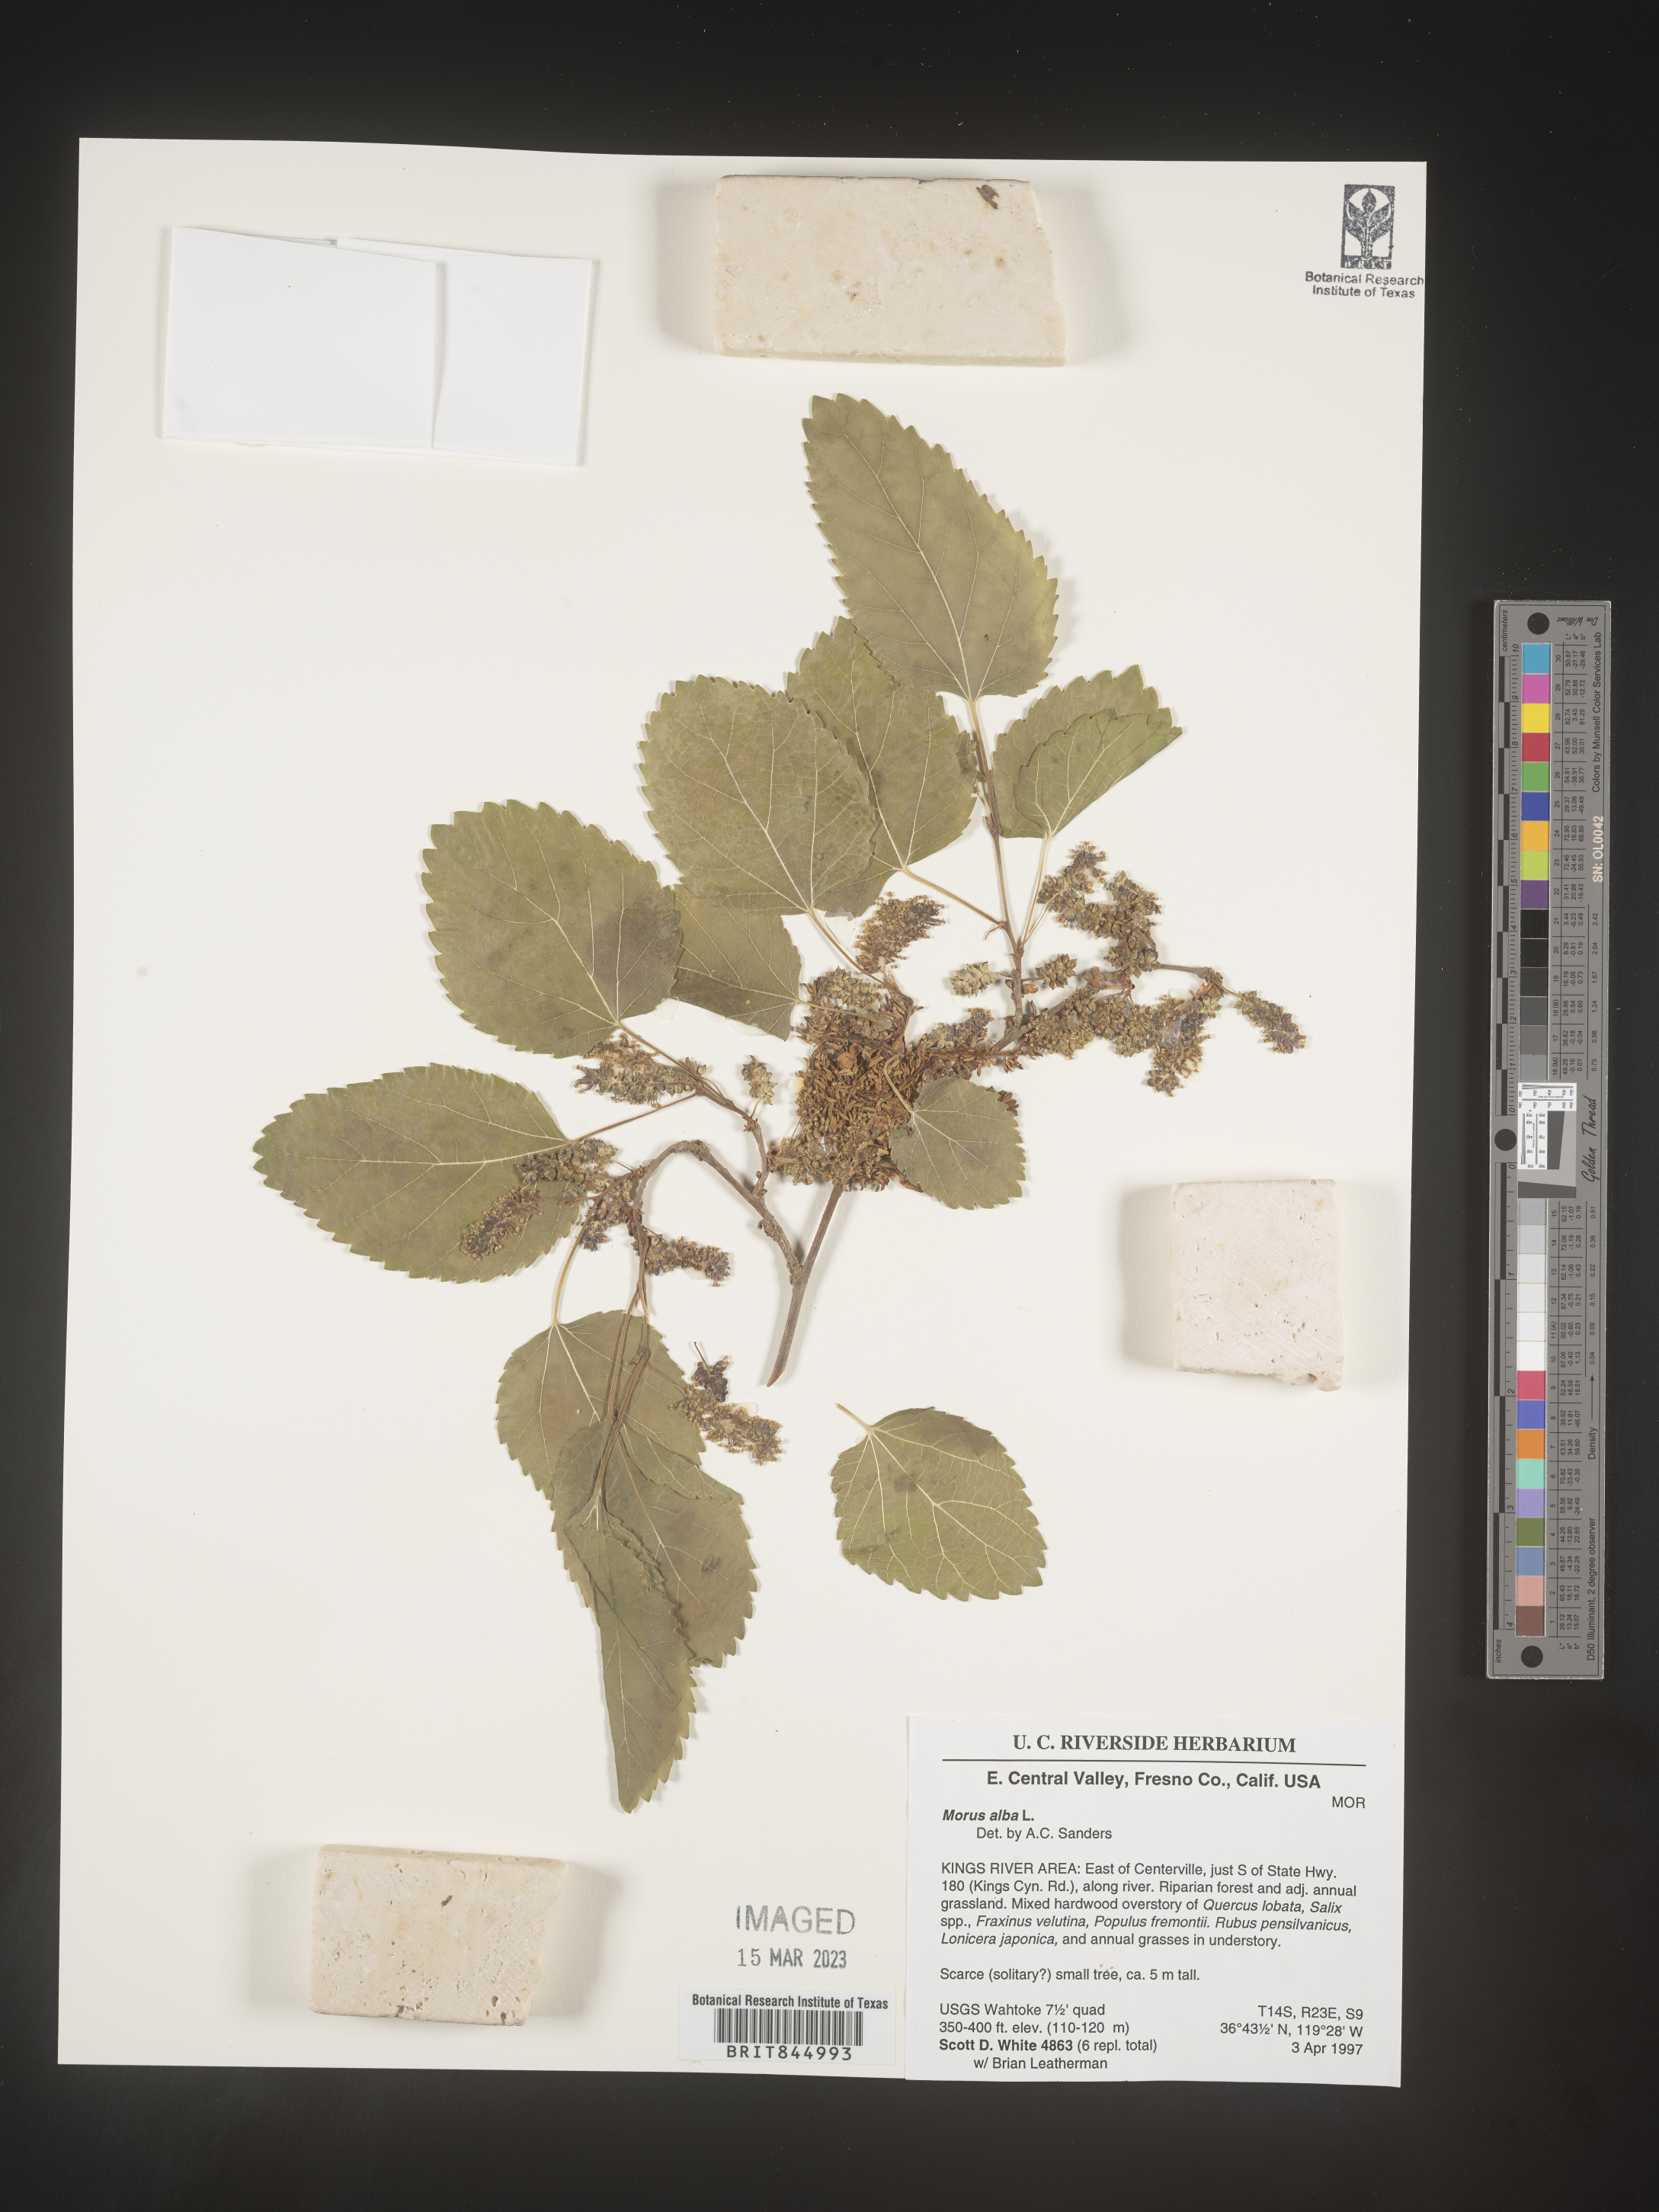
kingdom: Plantae
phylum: Tracheophyta
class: Magnoliopsida
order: Rosales
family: Moraceae
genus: Morus
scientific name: Morus alba
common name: White mulberry
